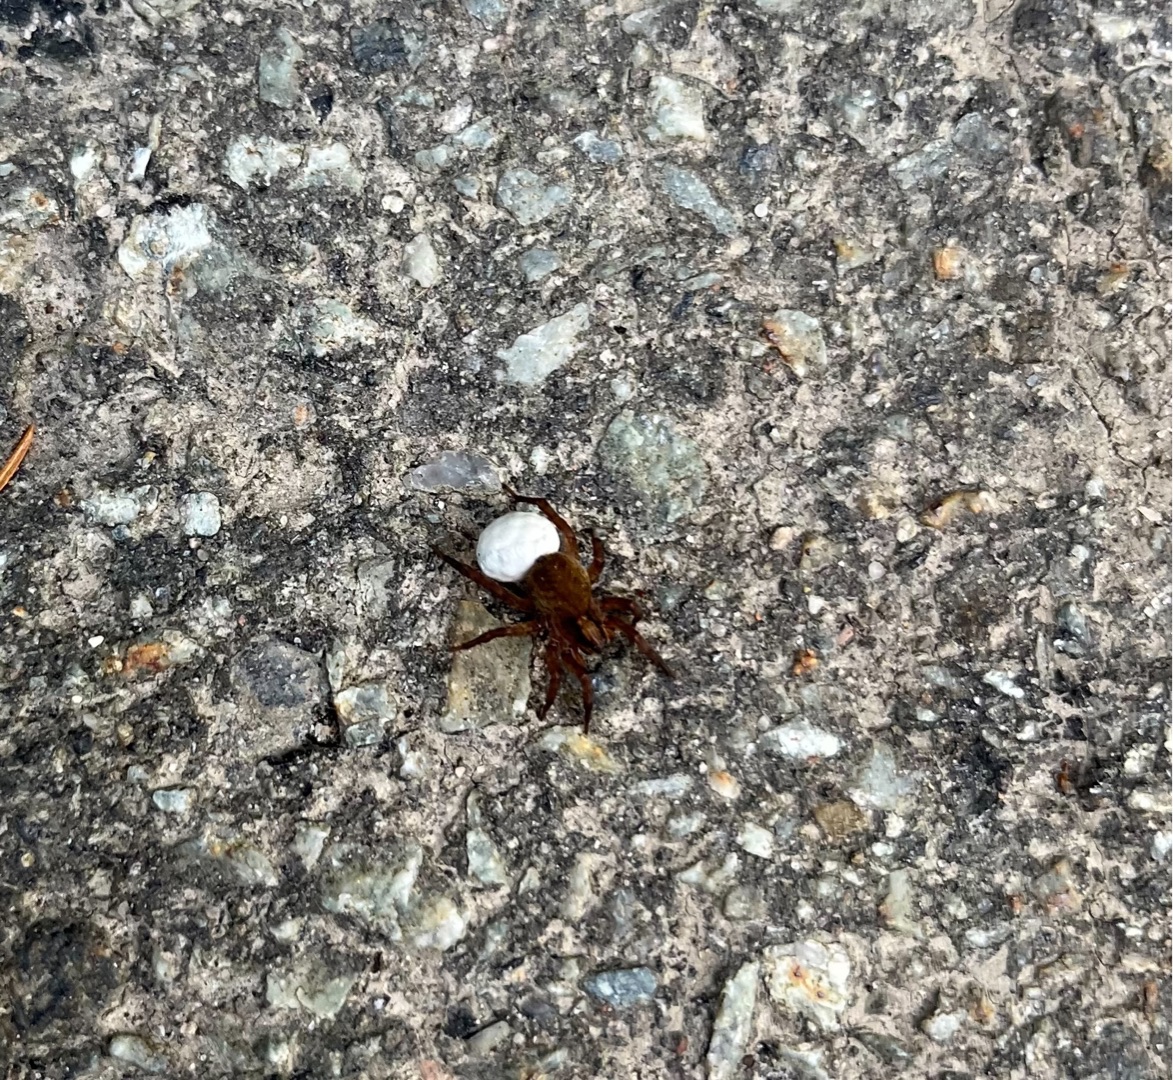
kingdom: Animalia
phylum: Arthropoda
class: Arachnida
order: Araneae
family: Lycosidae
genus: Trochosa
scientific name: Trochosa
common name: Bjørneedderkopslægten
